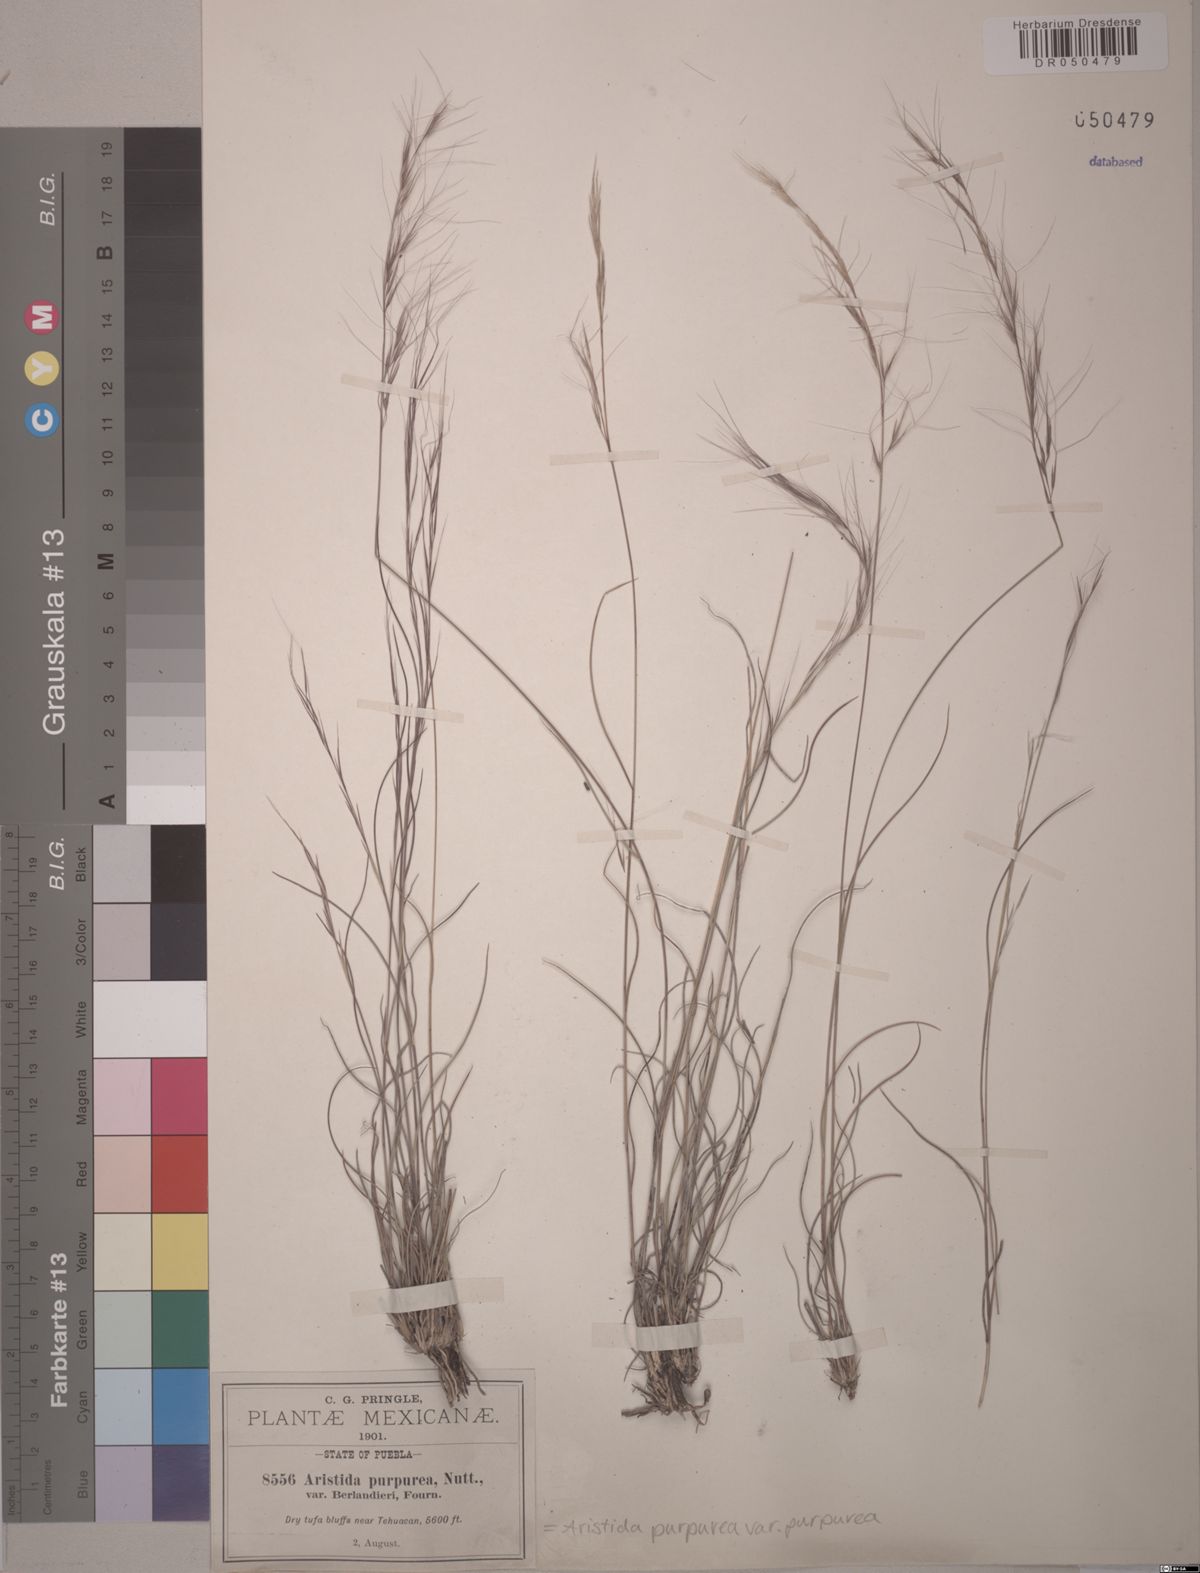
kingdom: Plantae
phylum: Tracheophyta
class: Liliopsida
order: Poales
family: Poaceae
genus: Aristida
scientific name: Aristida purpurea
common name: Purple threeawn
